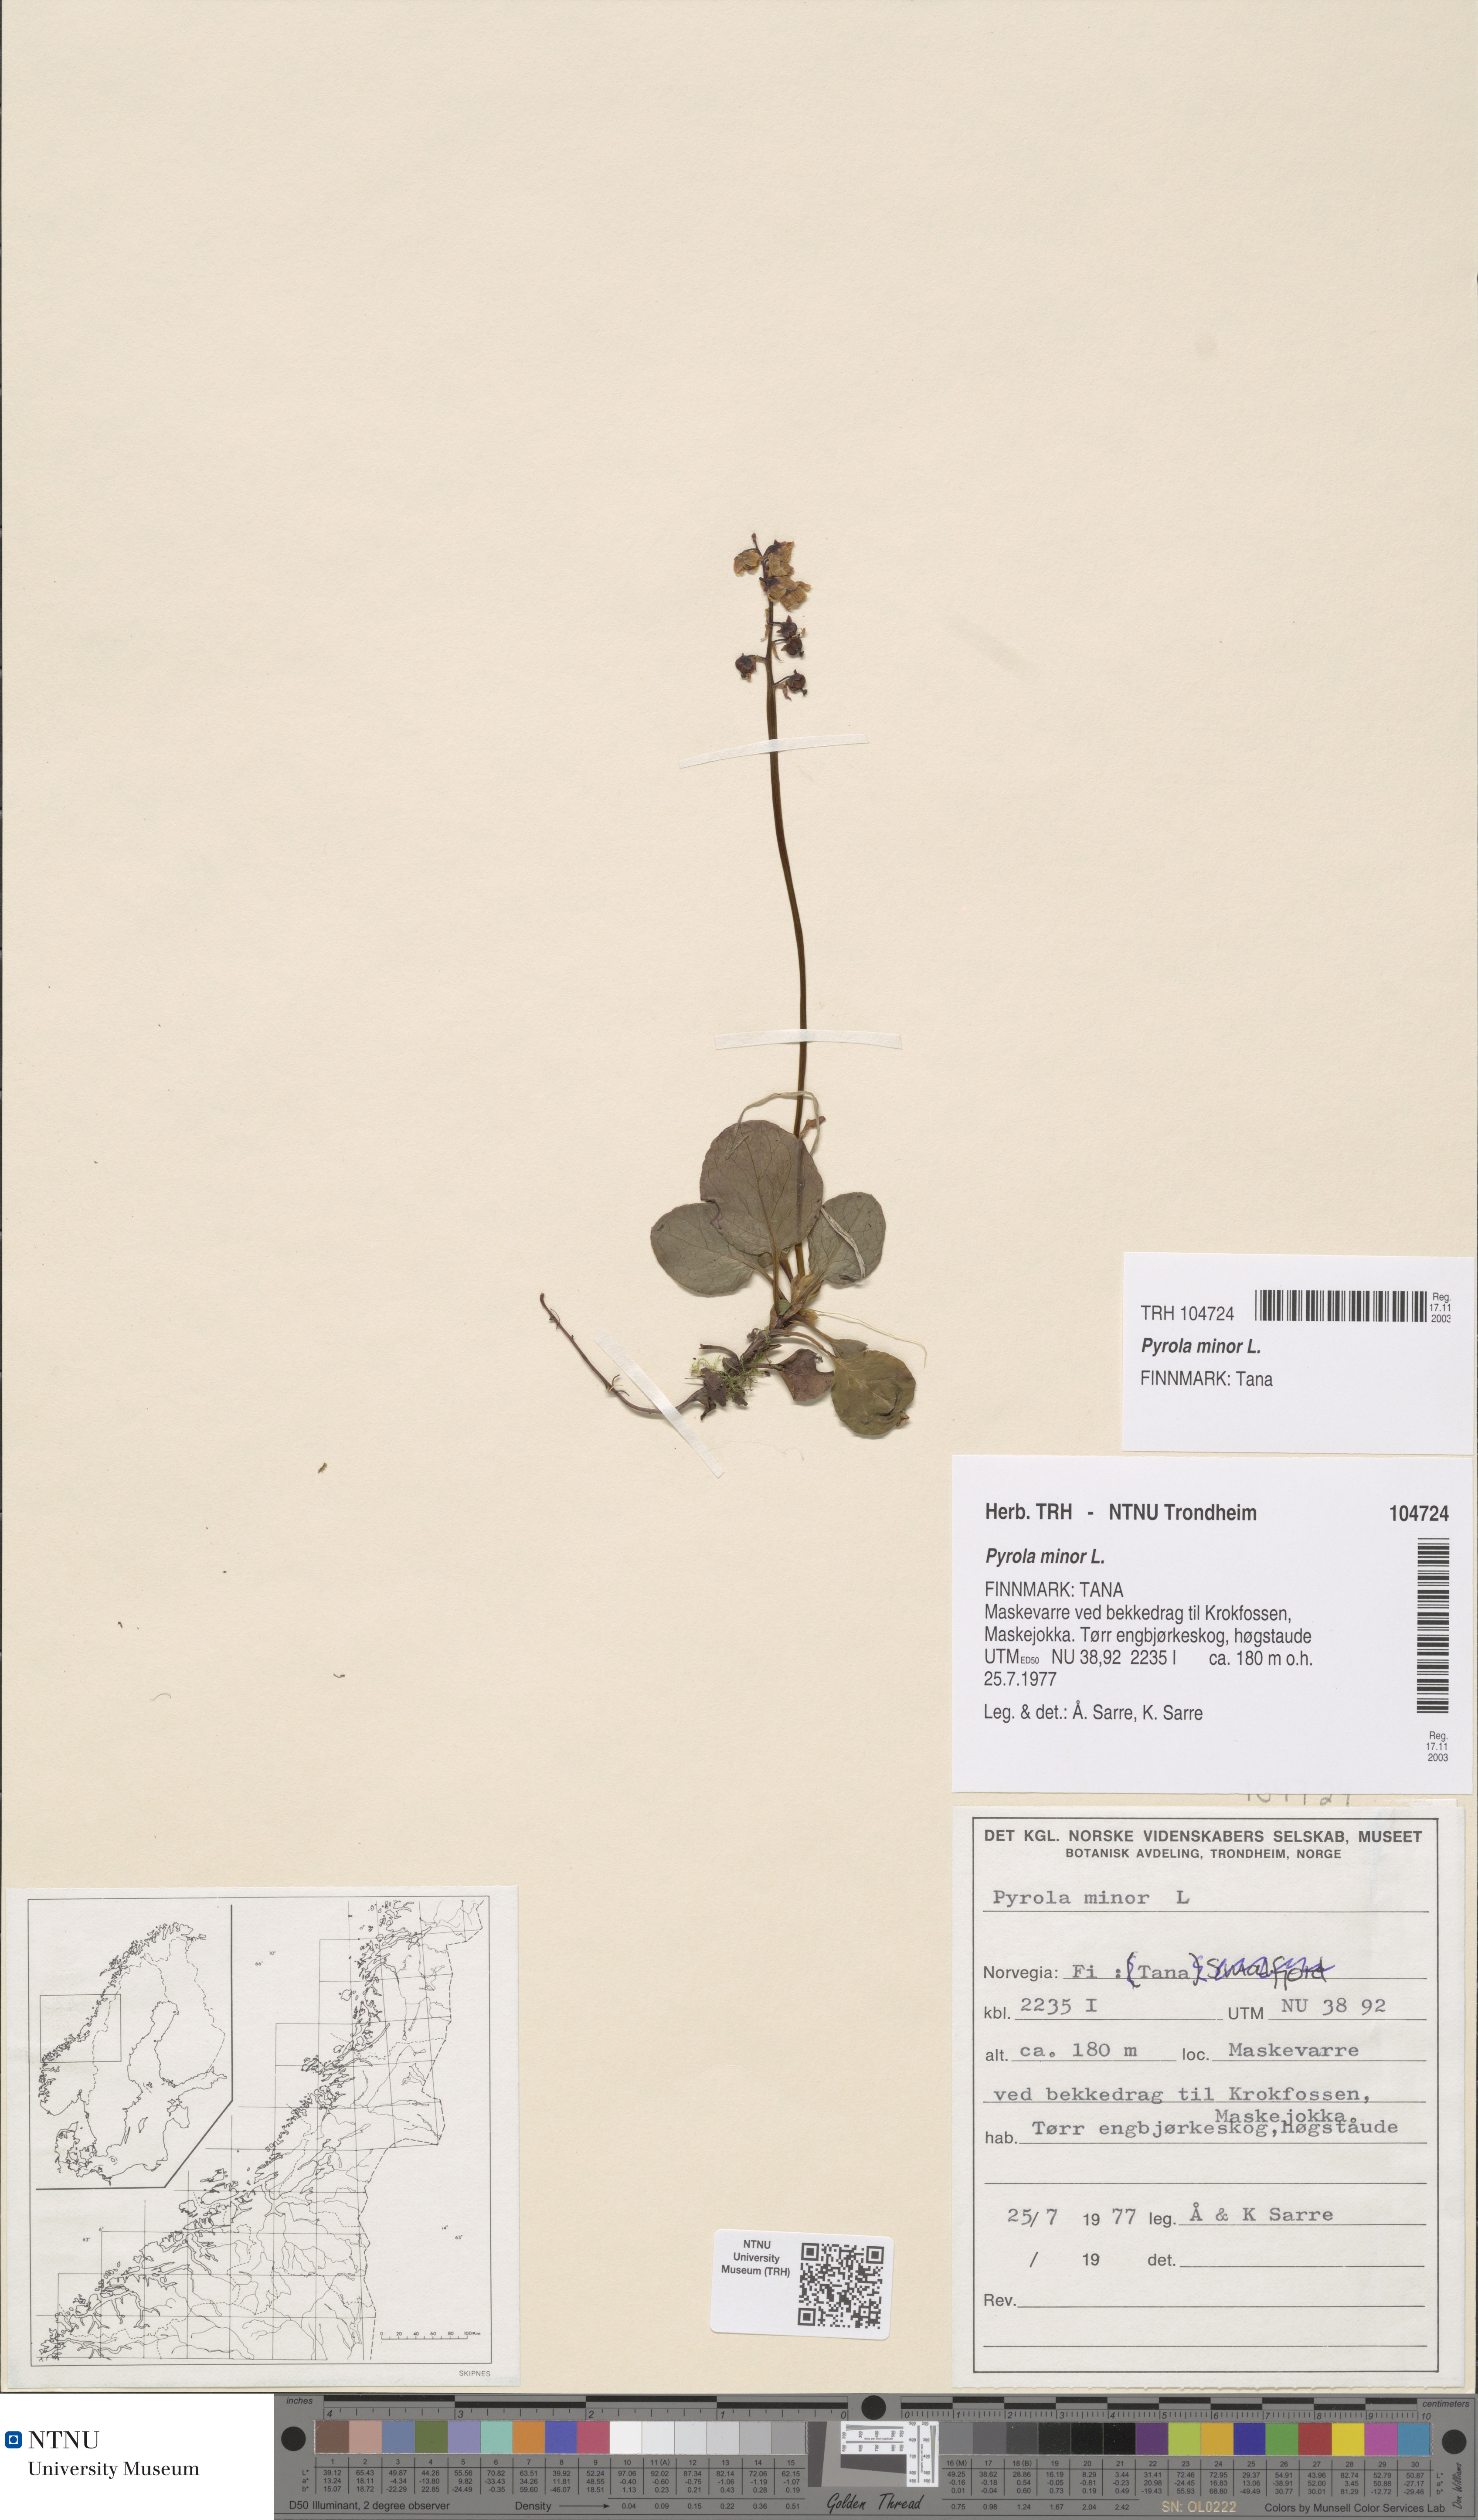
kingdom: Plantae
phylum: Tracheophyta
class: Magnoliopsida
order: Ericales
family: Ericaceae
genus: Pyrola
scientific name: Pyrola minor
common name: Common wintergreen
